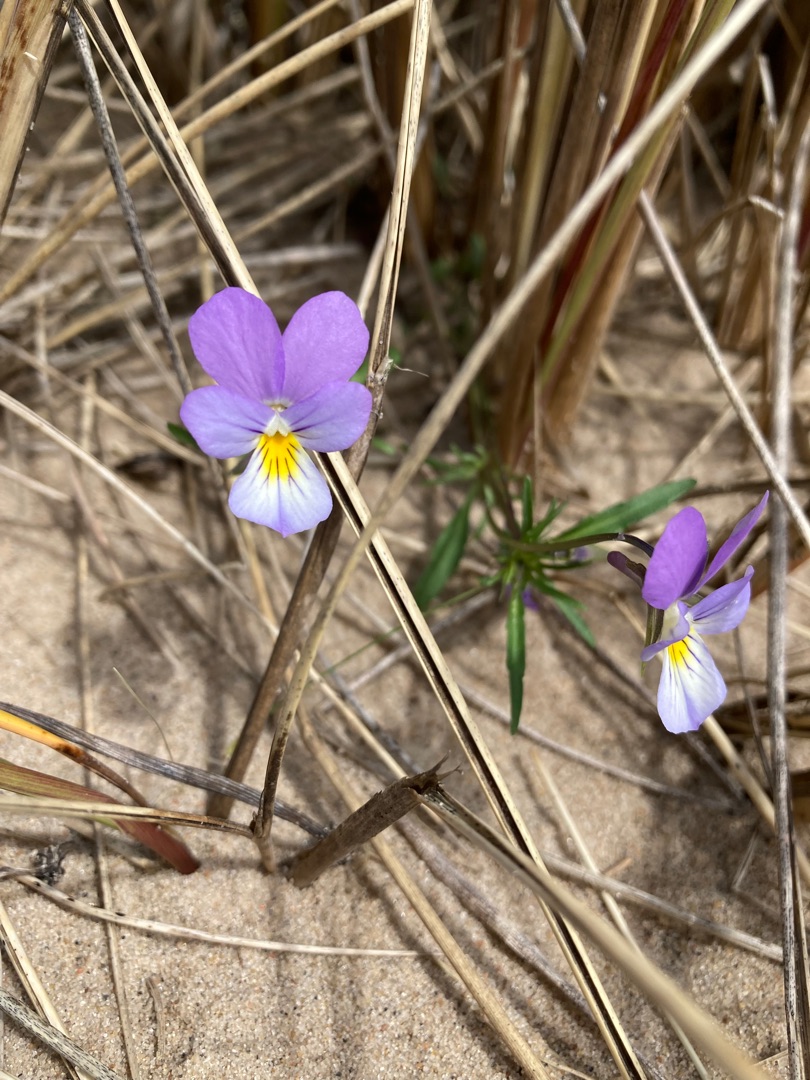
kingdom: Plantae
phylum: Tracheophyta
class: Magnoliopsida
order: Malpighiales
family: Violaceae
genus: Viola
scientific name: Viola tricolor
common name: Stedmoderblomst
